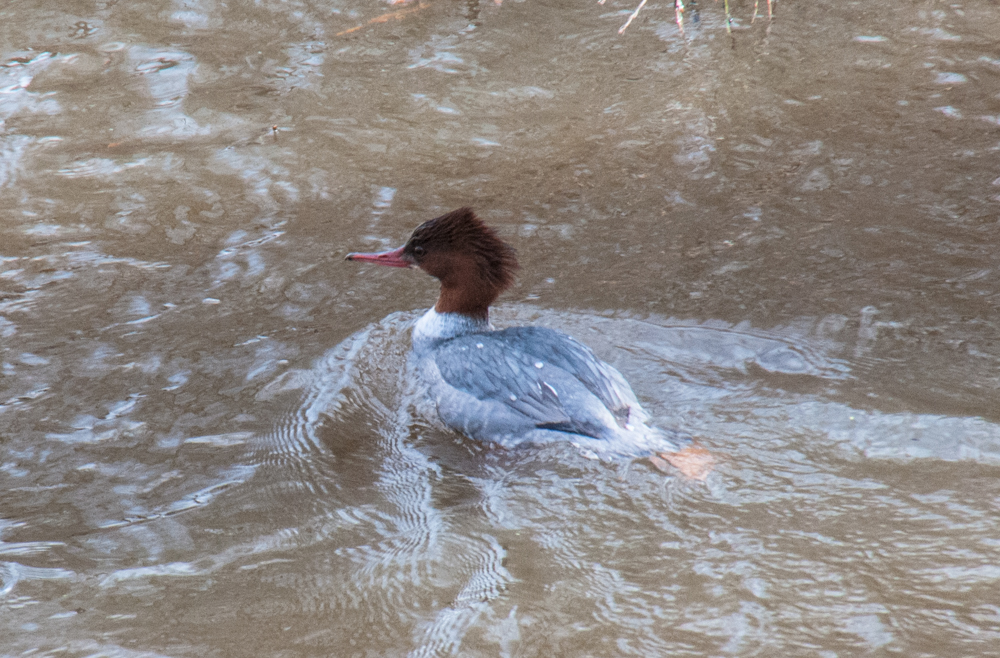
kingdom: Animalia
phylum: Chordata
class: Aves
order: Anseriformes
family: Anatidae
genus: Mergus
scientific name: Mergus merganser
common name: Common merganser
